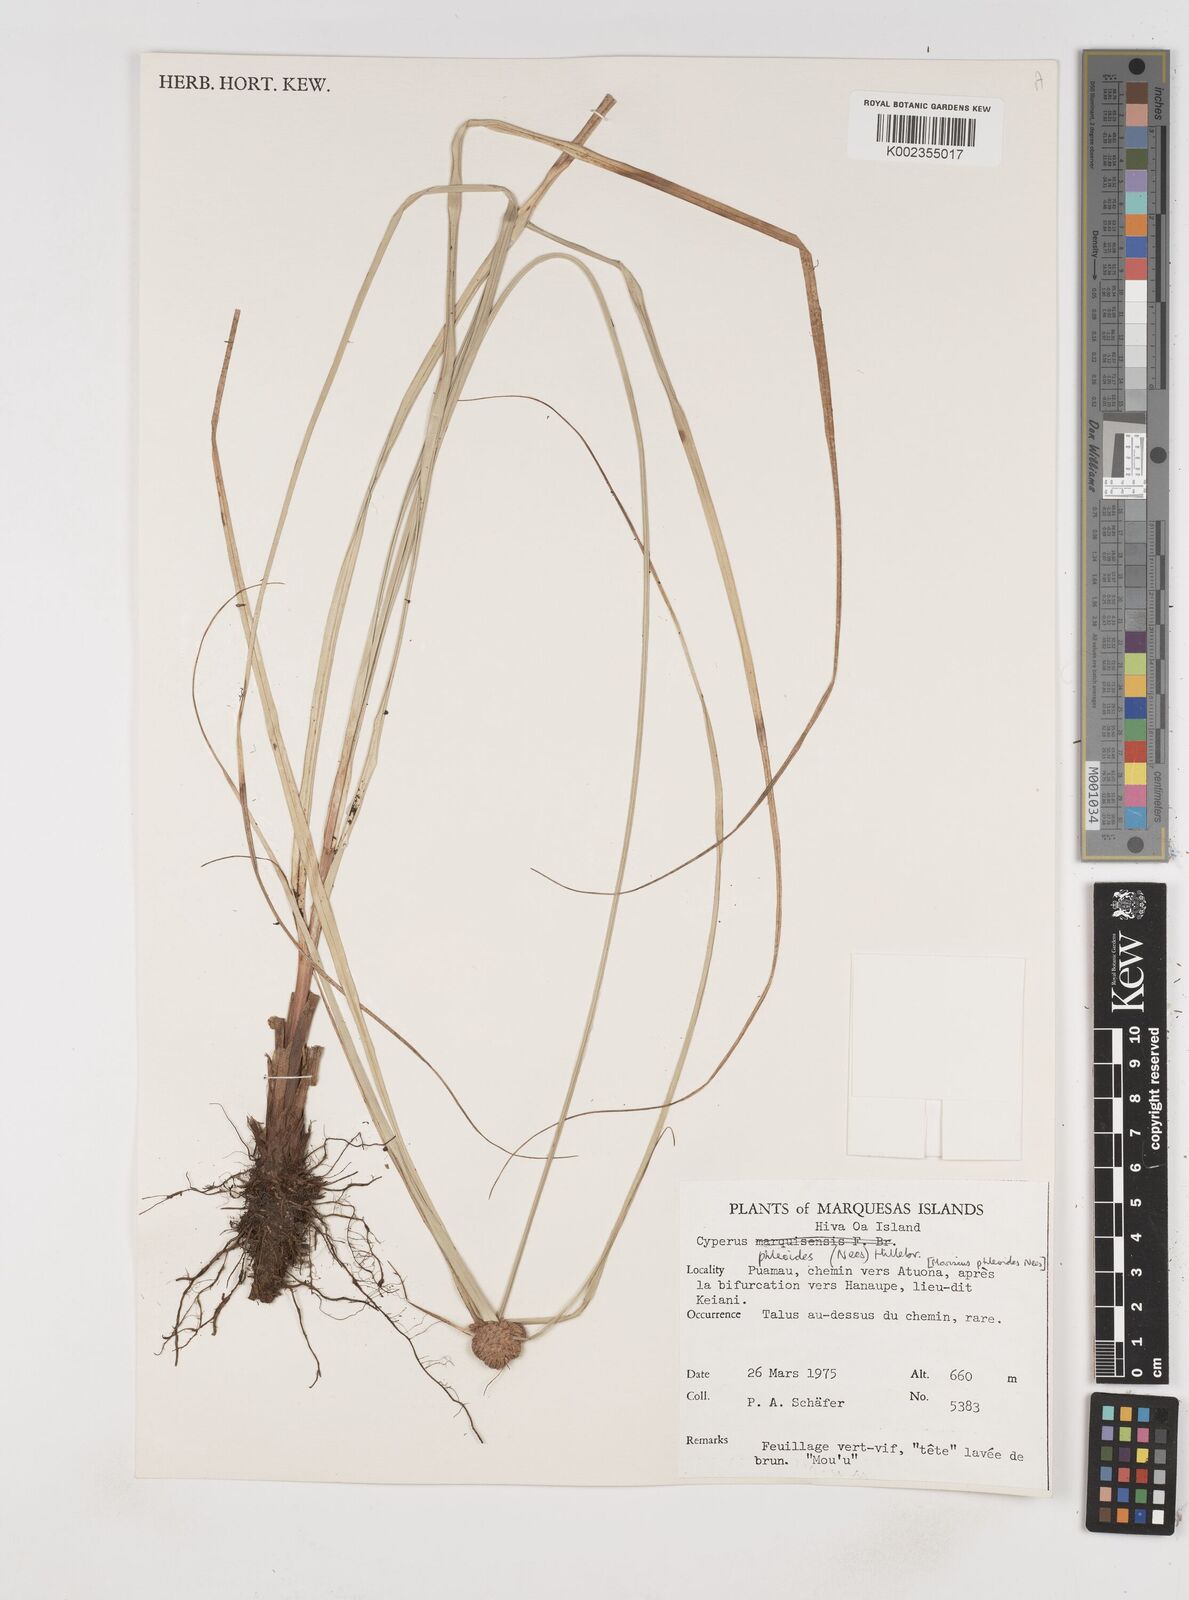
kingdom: Plantae
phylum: Tracheophyta
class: Liliopsida
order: Poales
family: Cyperaceae
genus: Cyperus
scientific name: Cyperus phleoides
